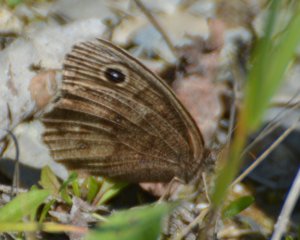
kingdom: Animalia
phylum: Arthropoda
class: Insecta
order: Lepidoptera
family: Nymphalidae
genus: Cercyonis
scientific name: Cercyonis pegala
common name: Common Wood-Nymph
